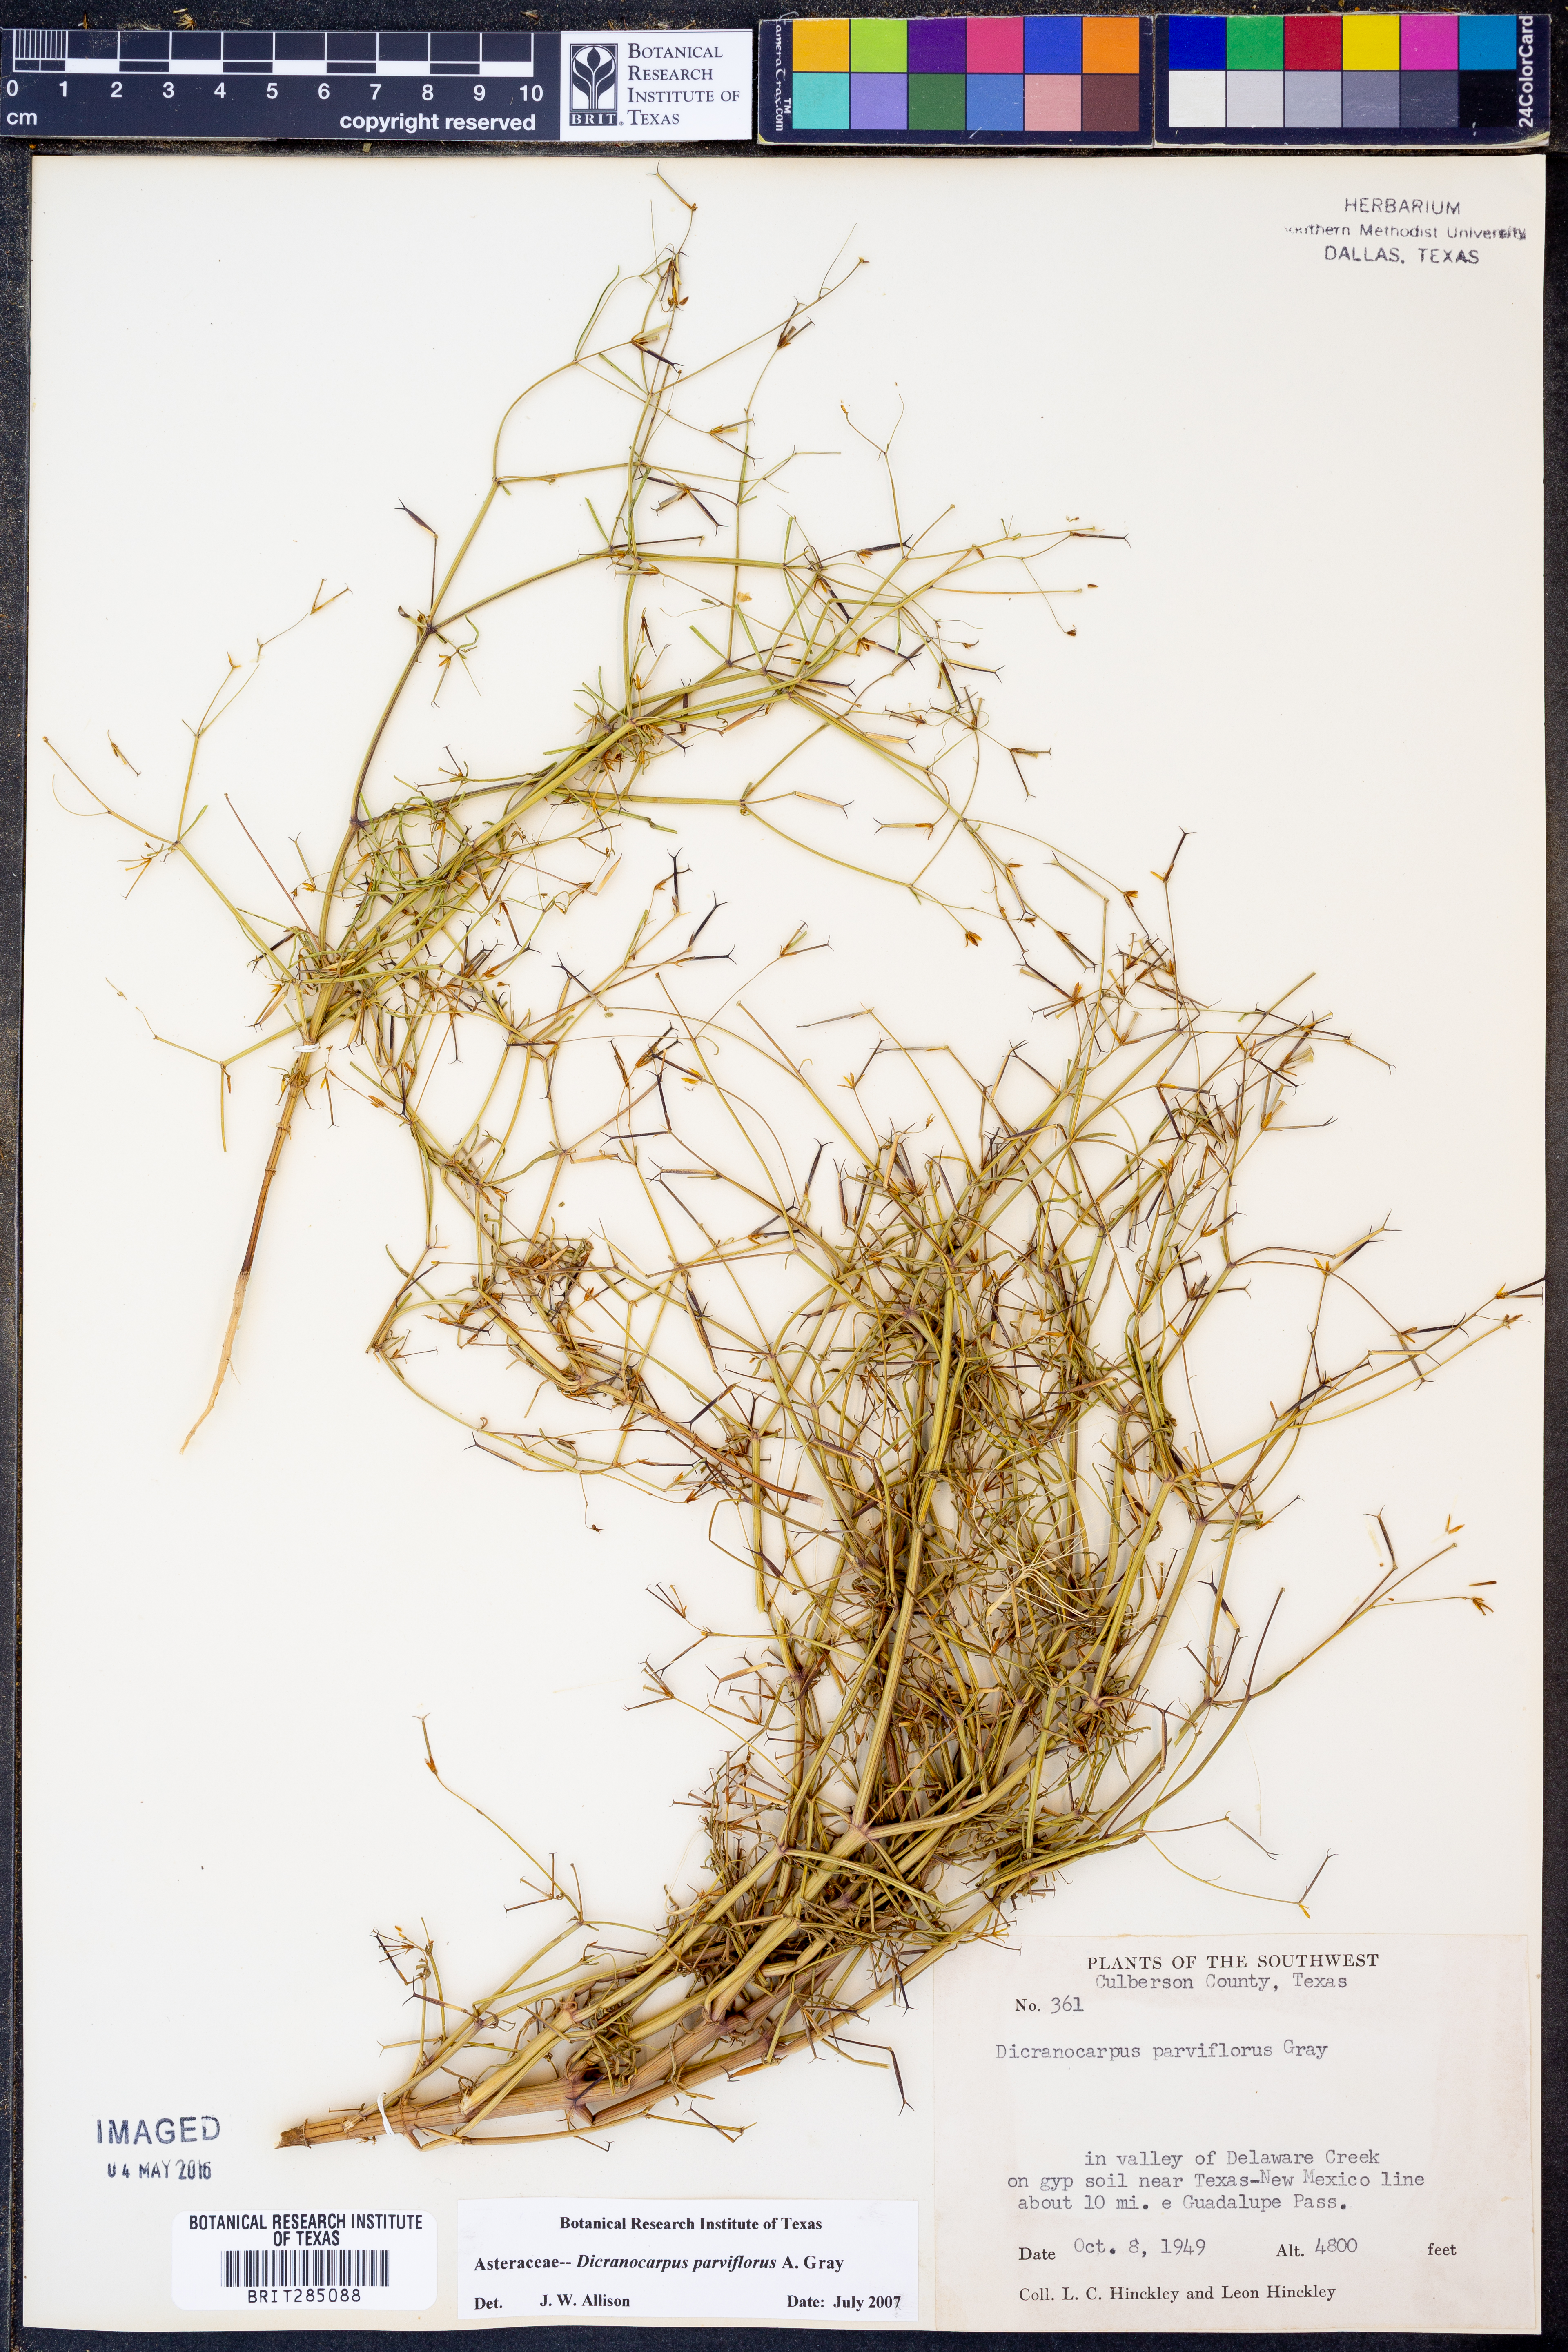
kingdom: Plantae
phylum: Tracheophyta
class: Magnoliopsida
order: Asterales
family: Asteraceae
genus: Dicranocarpus
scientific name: Dicranocarpus parviflorus
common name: Pitchfork
